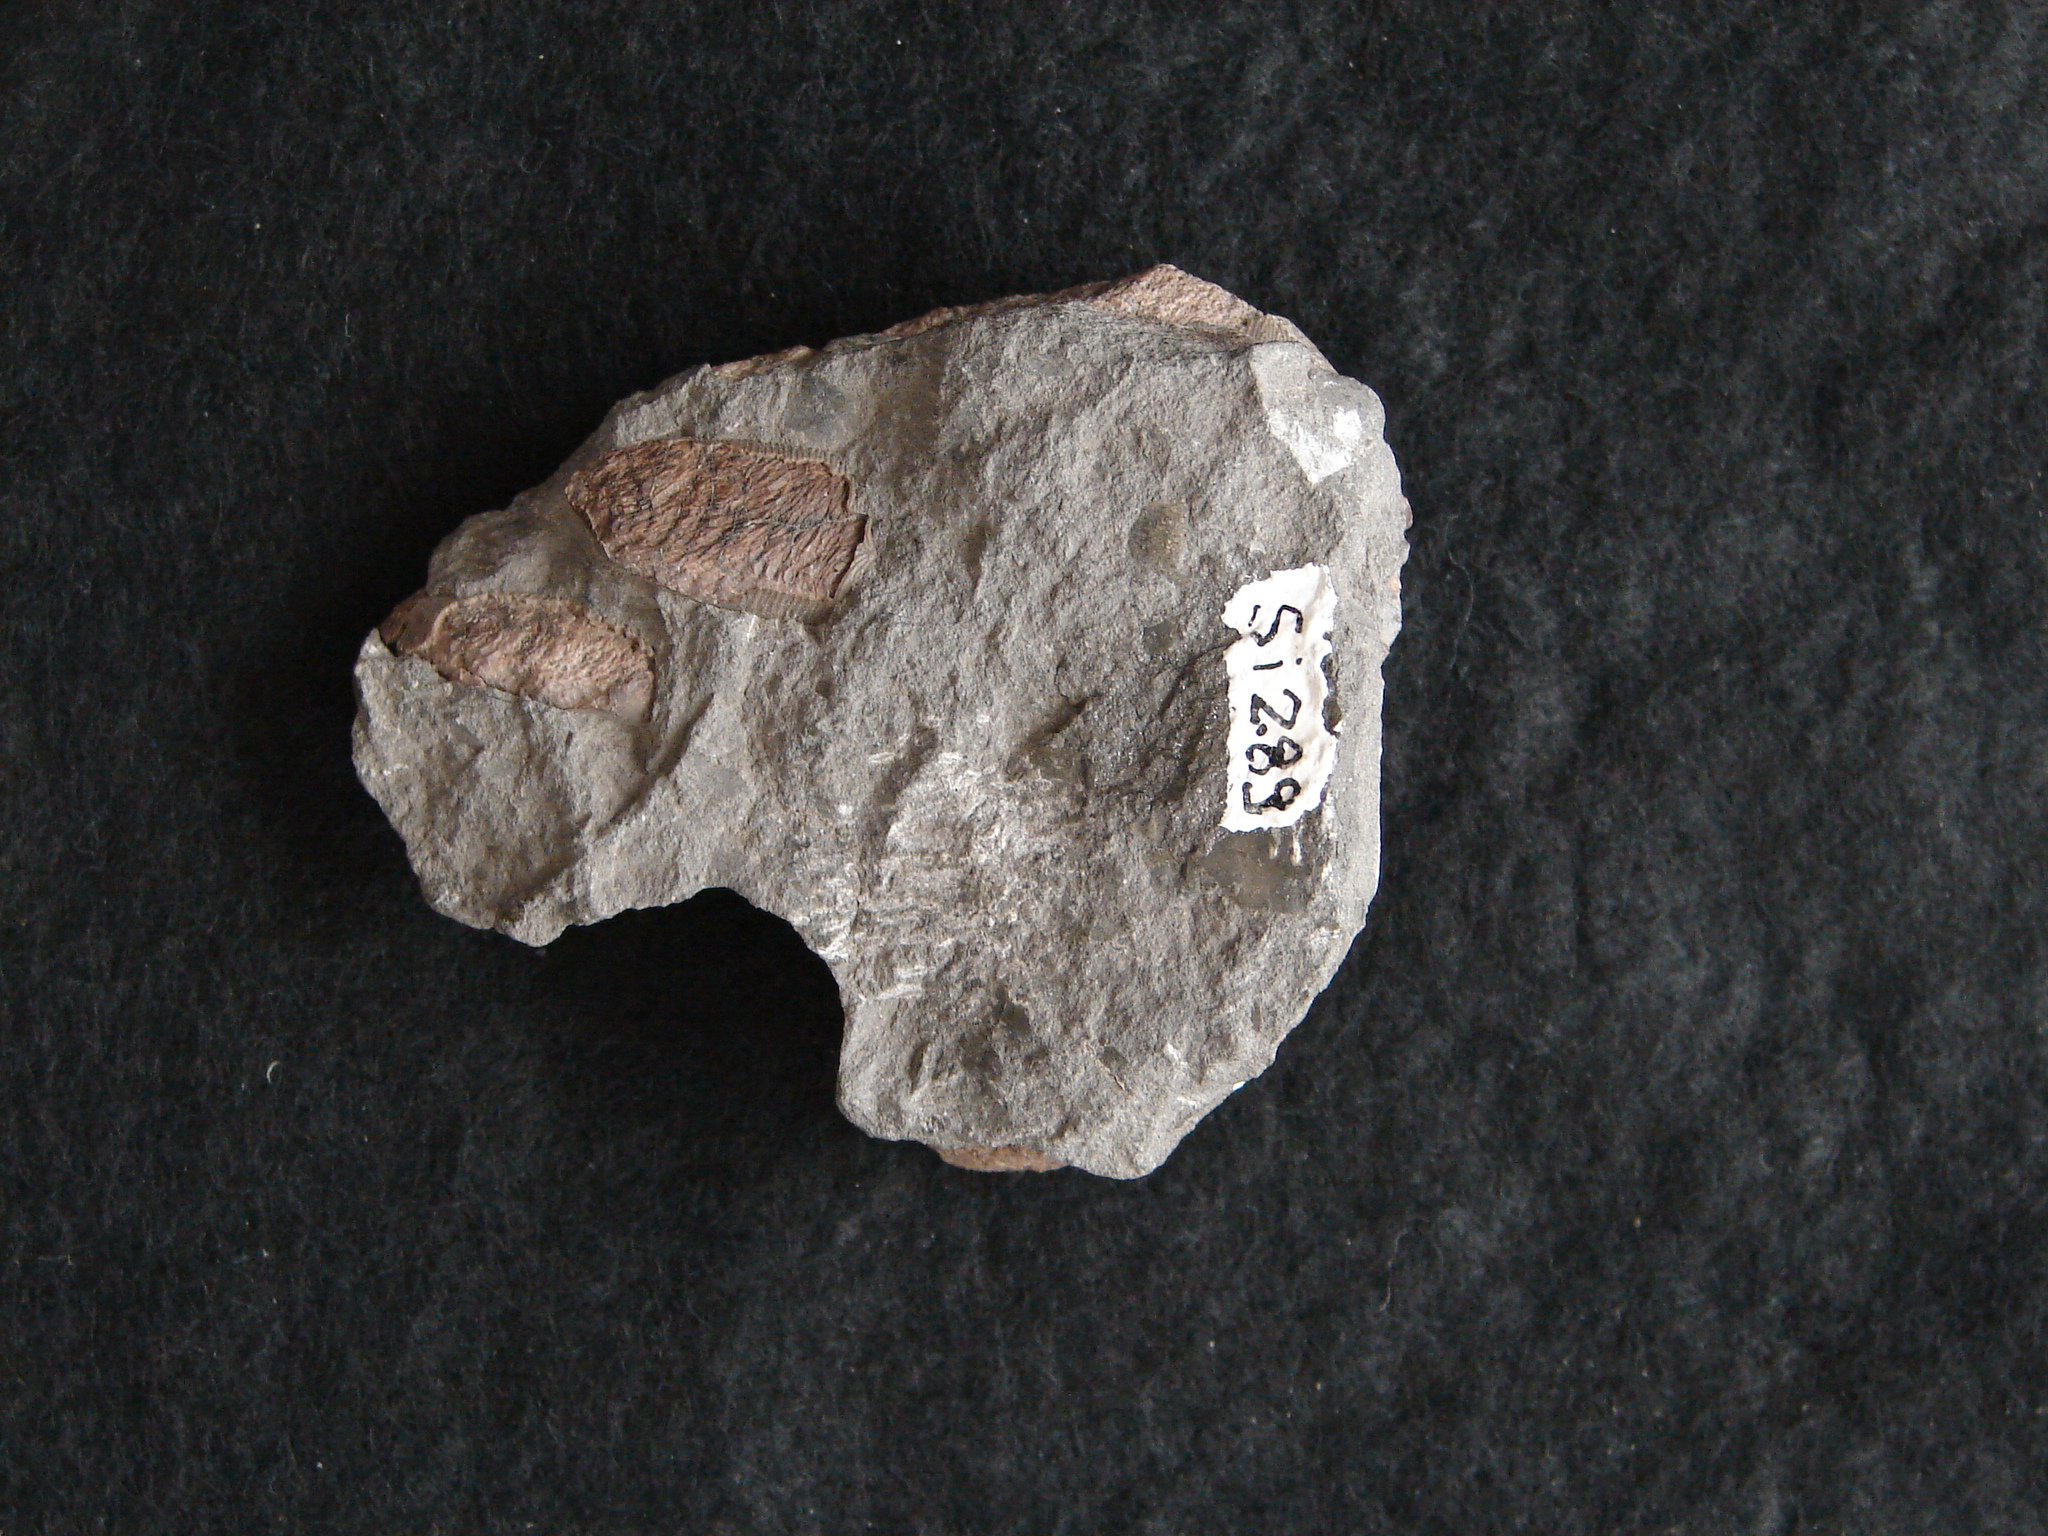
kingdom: Animalia
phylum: Chordata
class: Elasmobranchii
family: Acrodontidae
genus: Acrodus
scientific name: Acrodus nobilis
